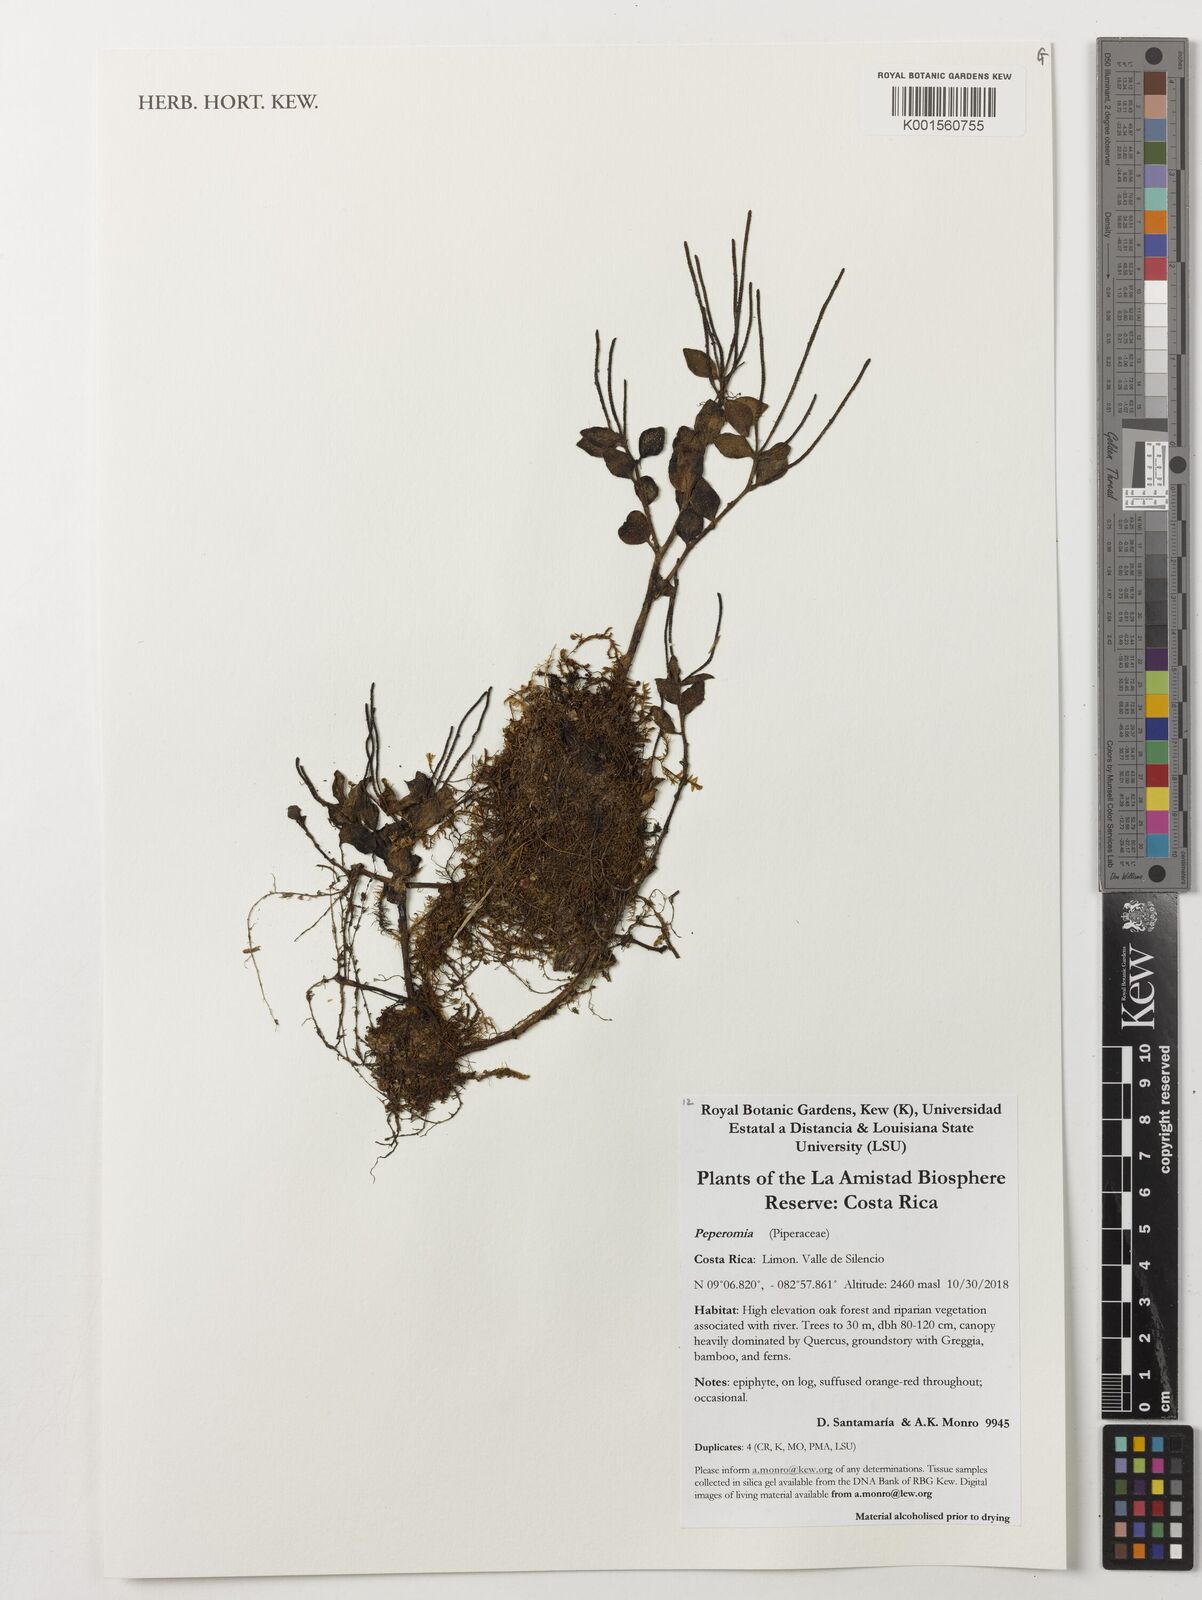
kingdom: Plantae
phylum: Tracheophyta
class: Magnoliopsida
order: Piperales
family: Piperaceae
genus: Peperomia
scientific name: Peperomia
